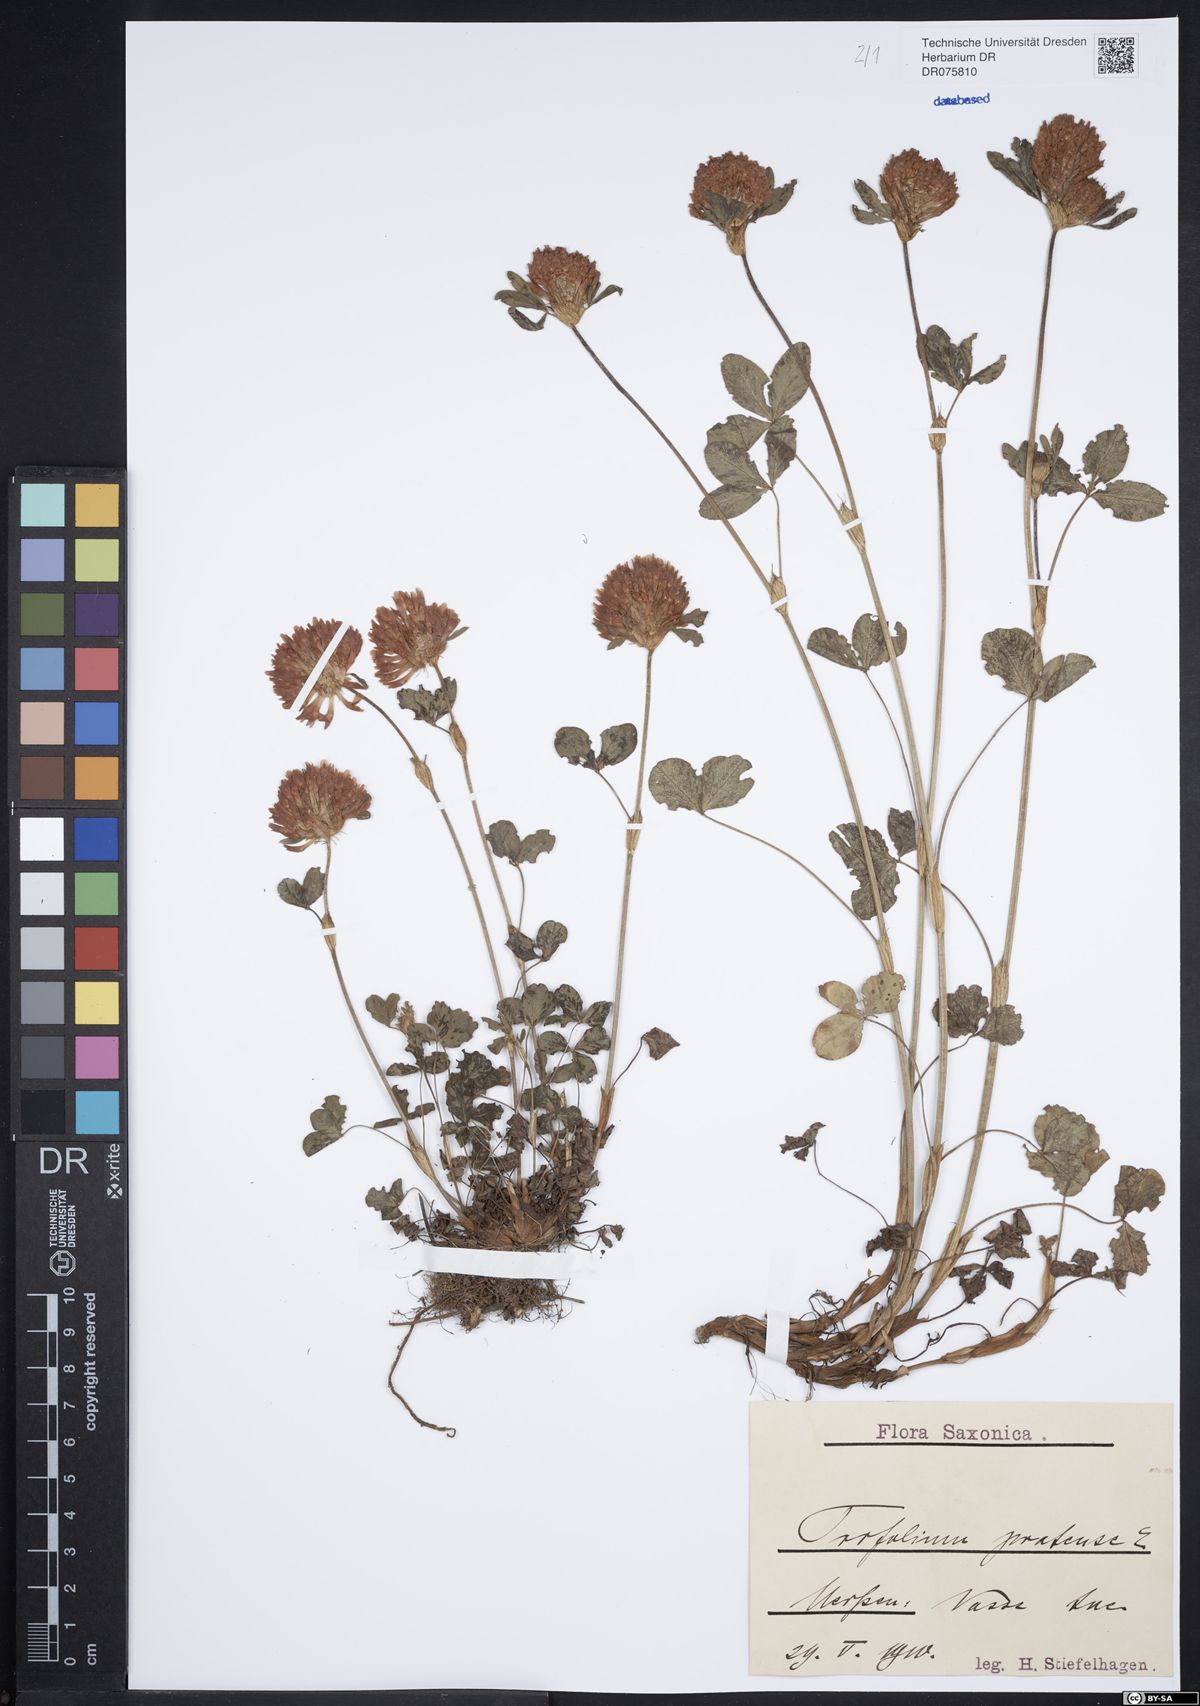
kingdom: Plantae
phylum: Tracheophyta
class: Magnoliopsida
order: Fabales
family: Fabaceae
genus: Trifolium
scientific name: Trifolium pratense
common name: Red clover
